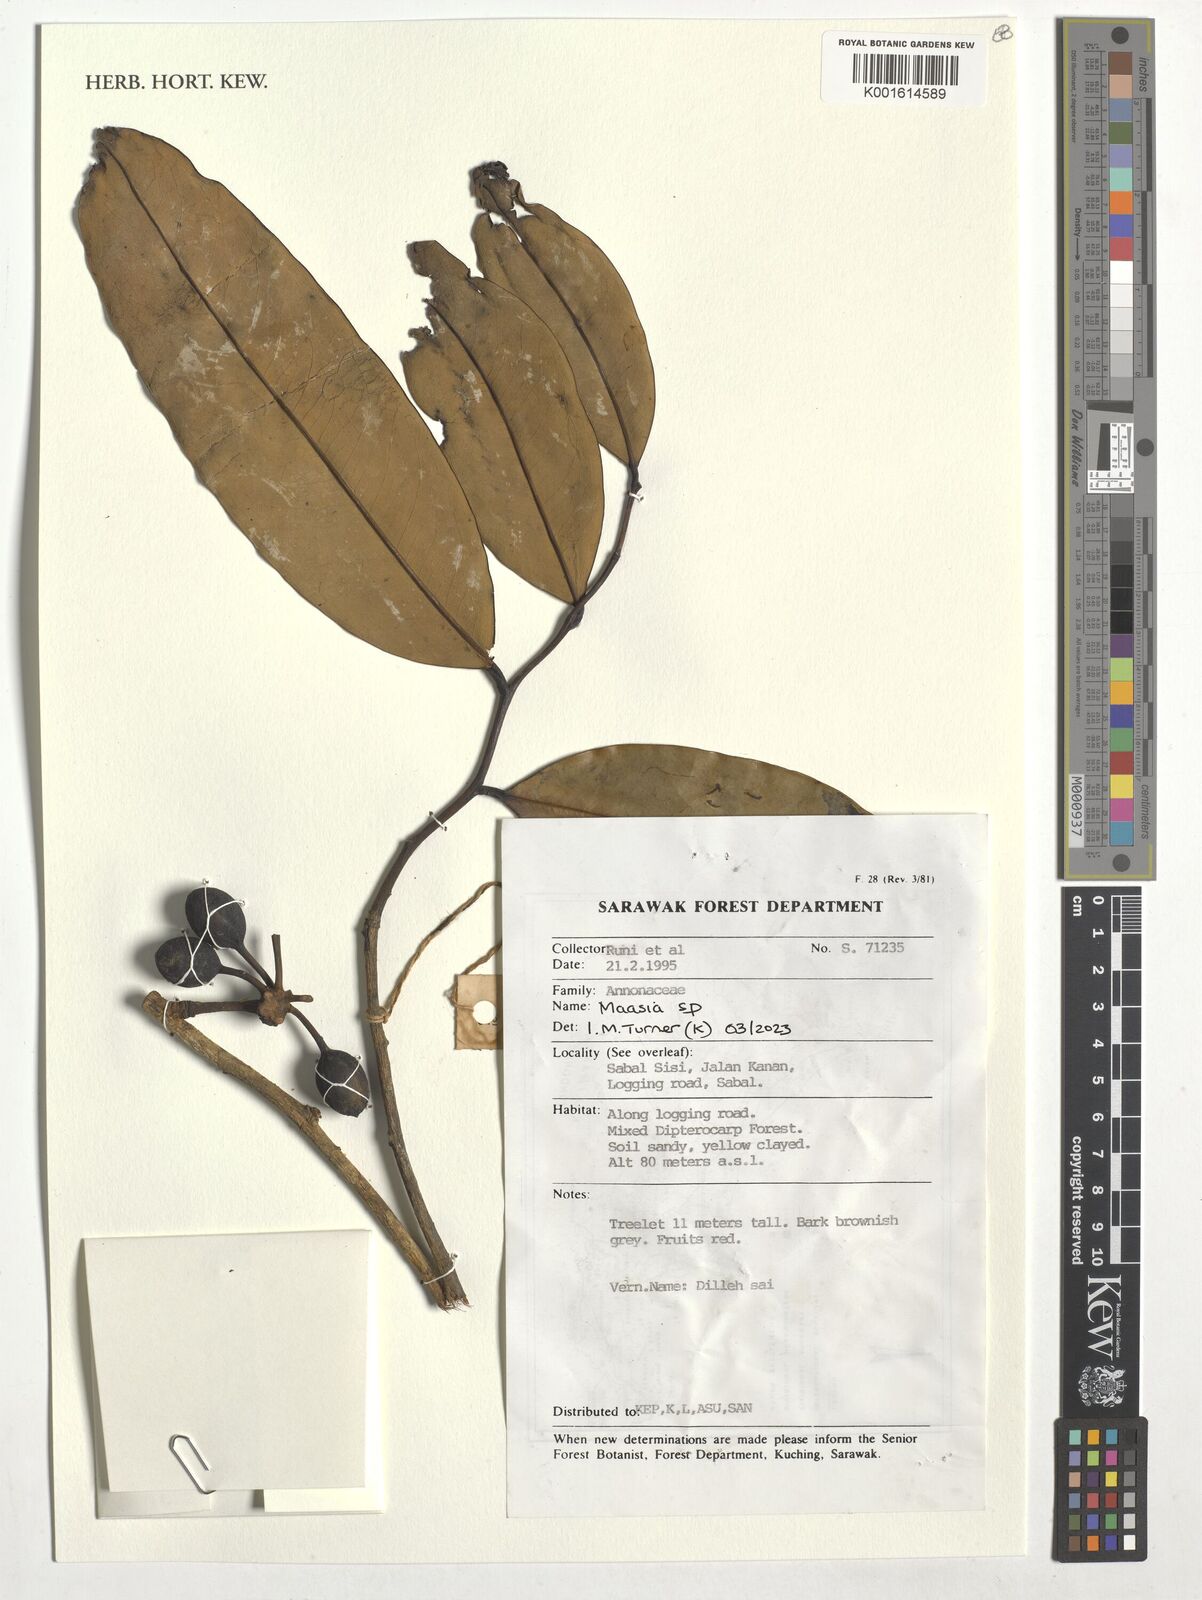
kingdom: Plantae
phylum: Tracheophyta
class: Magnoliopsida
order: Magnoliales
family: Annonaceae
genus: Maasia
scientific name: Maasia
